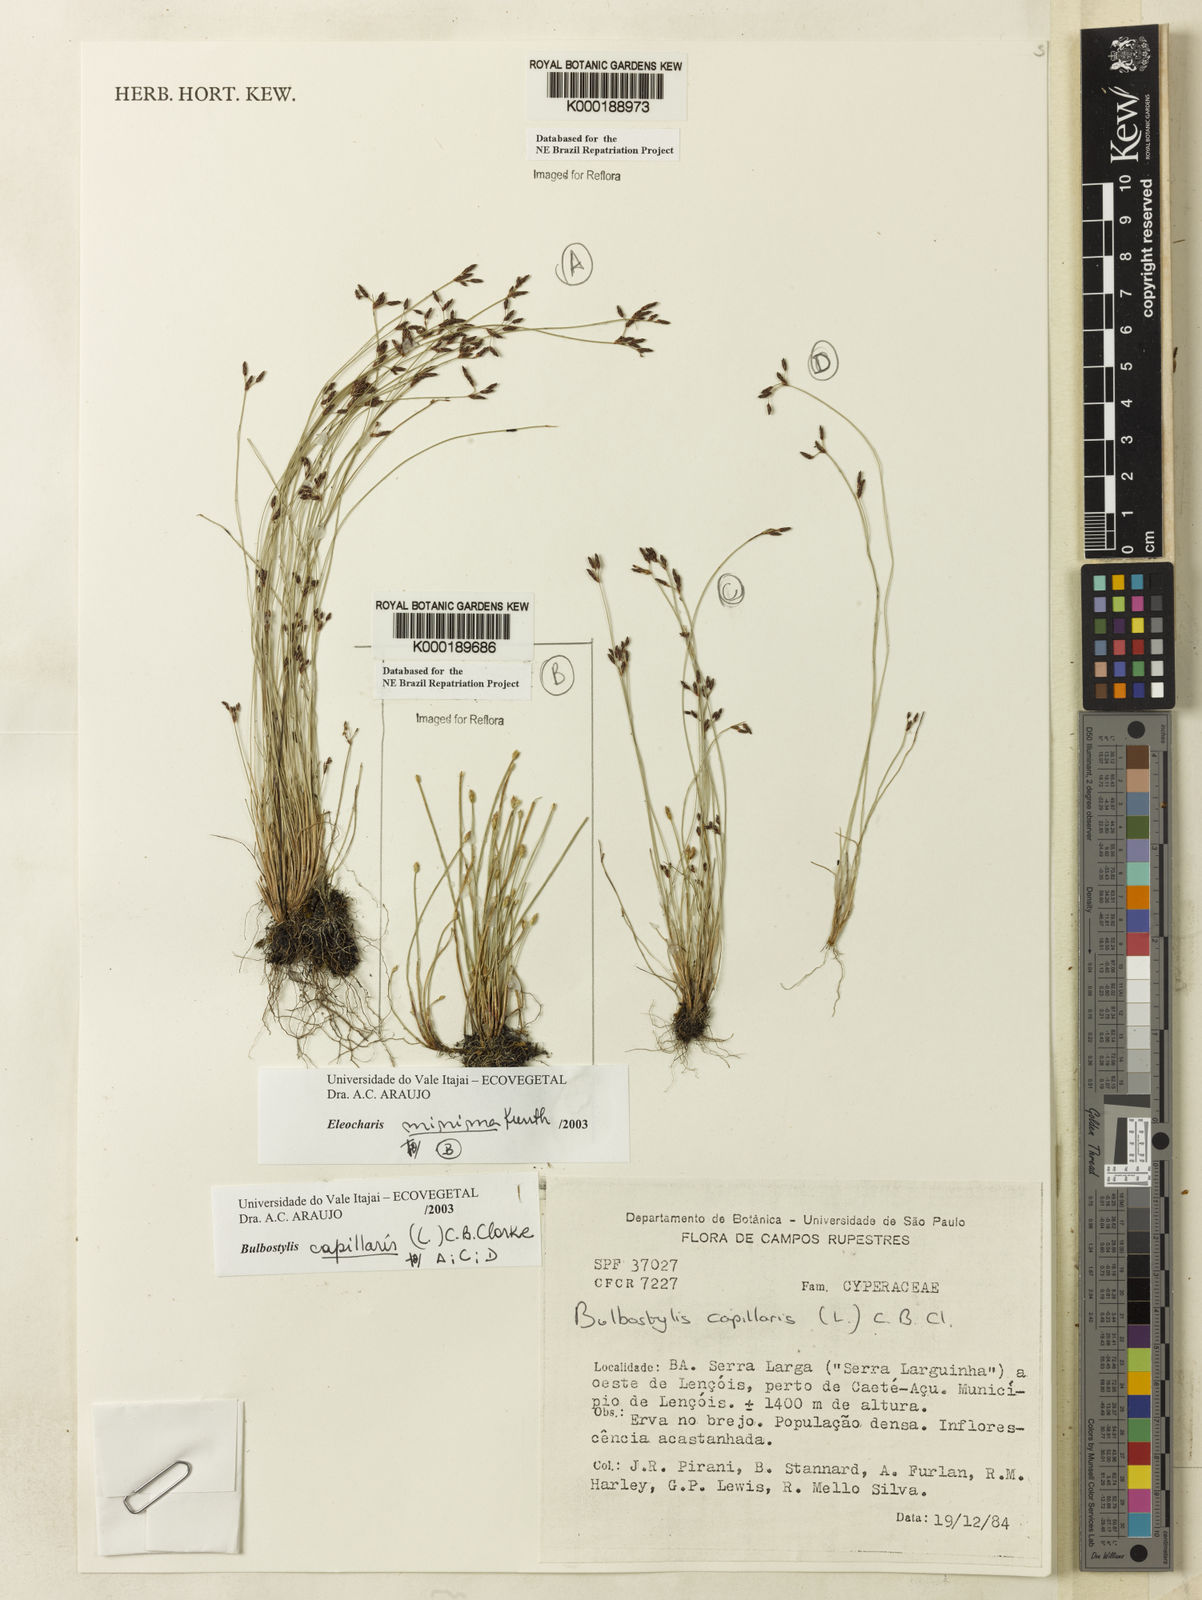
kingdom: Plantae
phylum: Tracheophyta
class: Liliopsida
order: Poales
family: Cyperaceae
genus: Eleocharis
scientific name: Eleocharis minima
